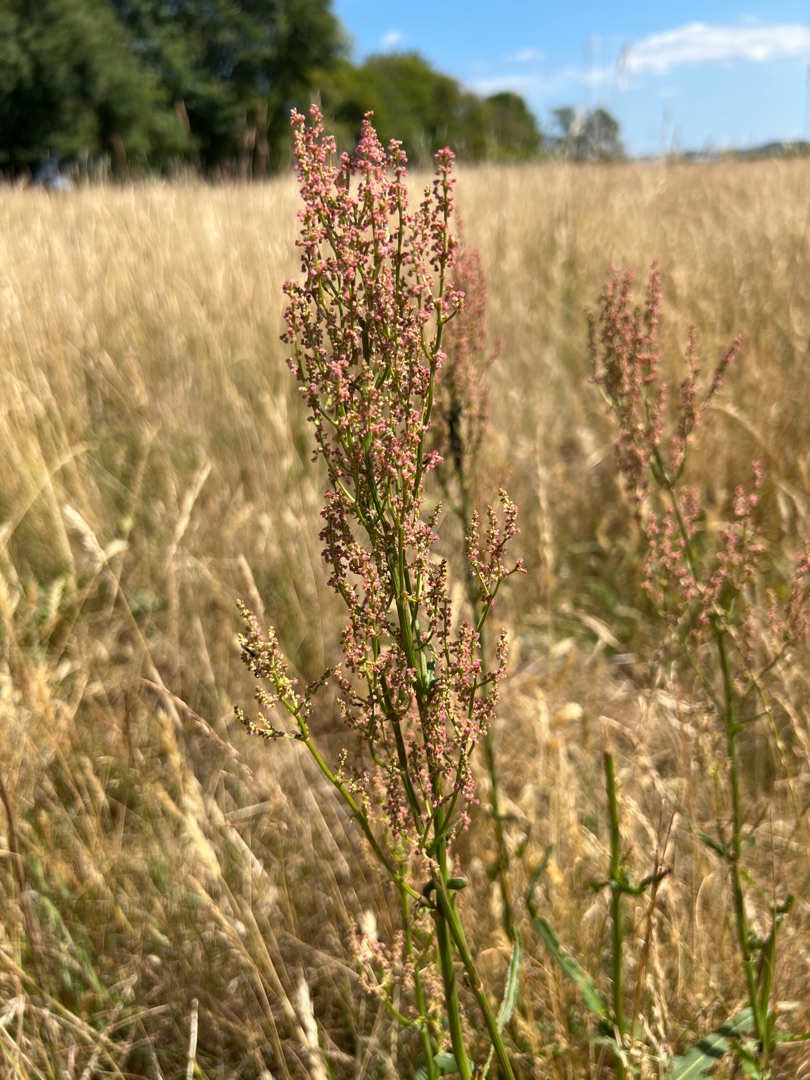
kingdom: Plantae
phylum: Tracheophyta
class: Magnoliopsida
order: Caryophyllales
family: Polygonaceae
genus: Rumex
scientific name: Rumex thyrsiflorus
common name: Dusk-syre
